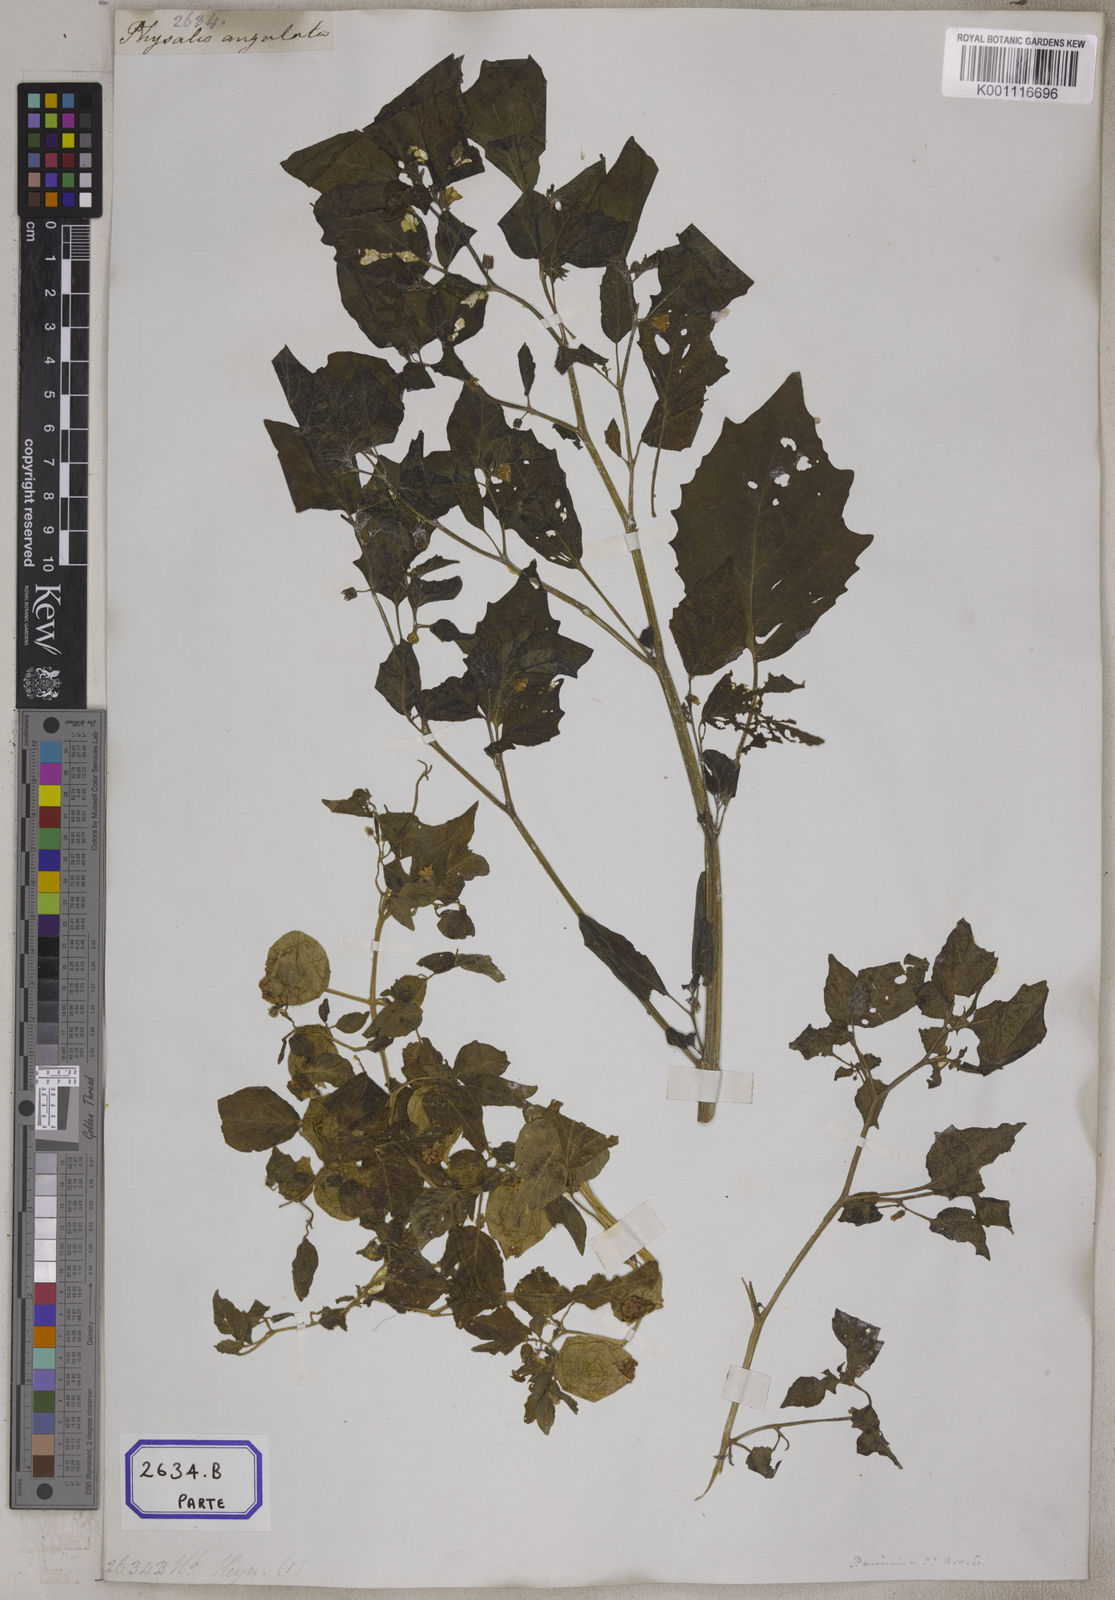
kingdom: Plantae
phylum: Tracheophyta
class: Magnoliopsida
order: Solanales
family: Solanaceae
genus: Physalis
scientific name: Physalis peruviana
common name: Cape-gooseberry
